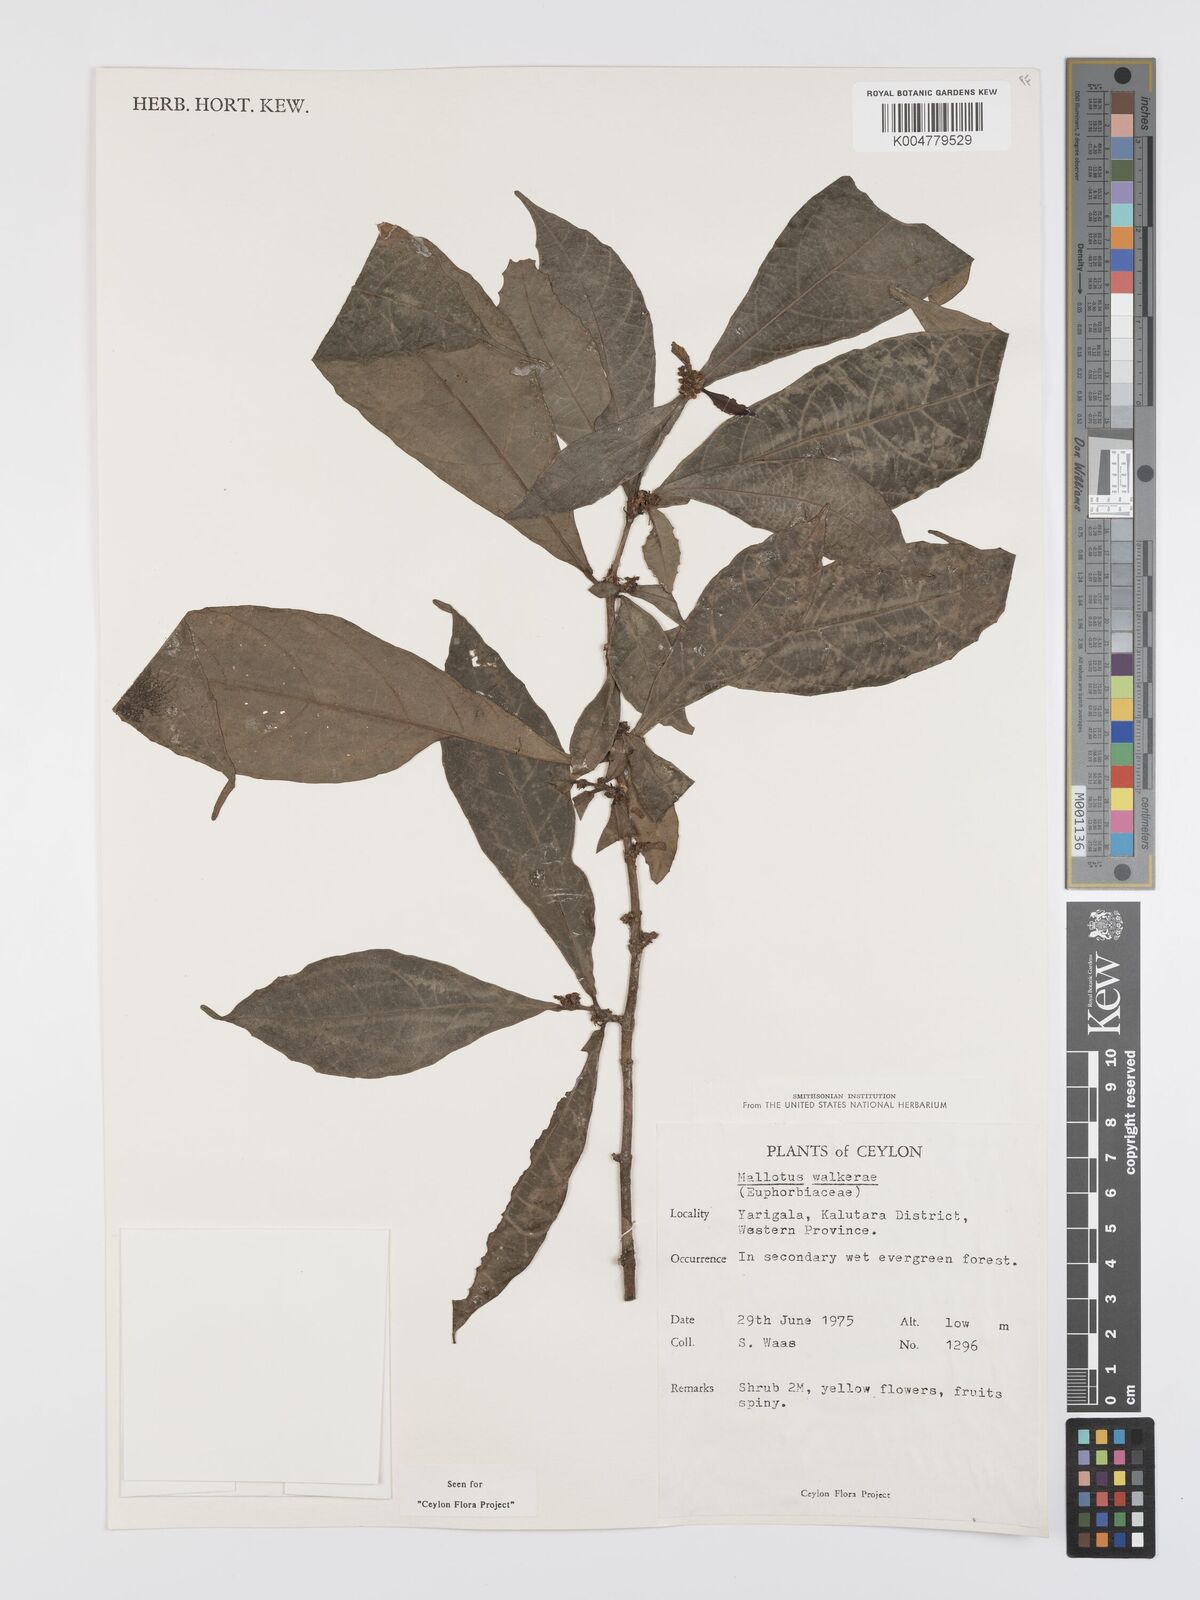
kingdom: Plantae
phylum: Tracheophyta
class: Magnoliopsida
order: Malpighiales
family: Euphorbiaceae
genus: Mallotus
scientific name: Mallotus resinosus
